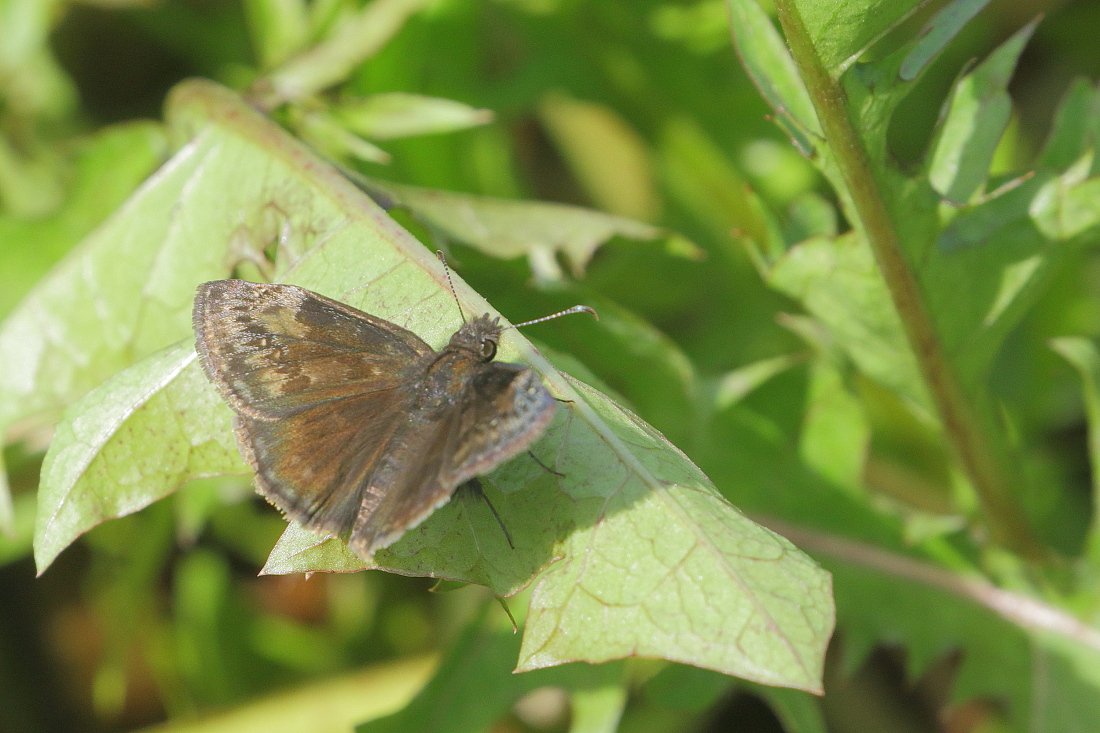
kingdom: Animalia
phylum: Arthropoda
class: Insecta
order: Lepidoptera
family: Hesperiidae
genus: Gesta
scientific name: Gesta
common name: Wild Indigo Duskywing
